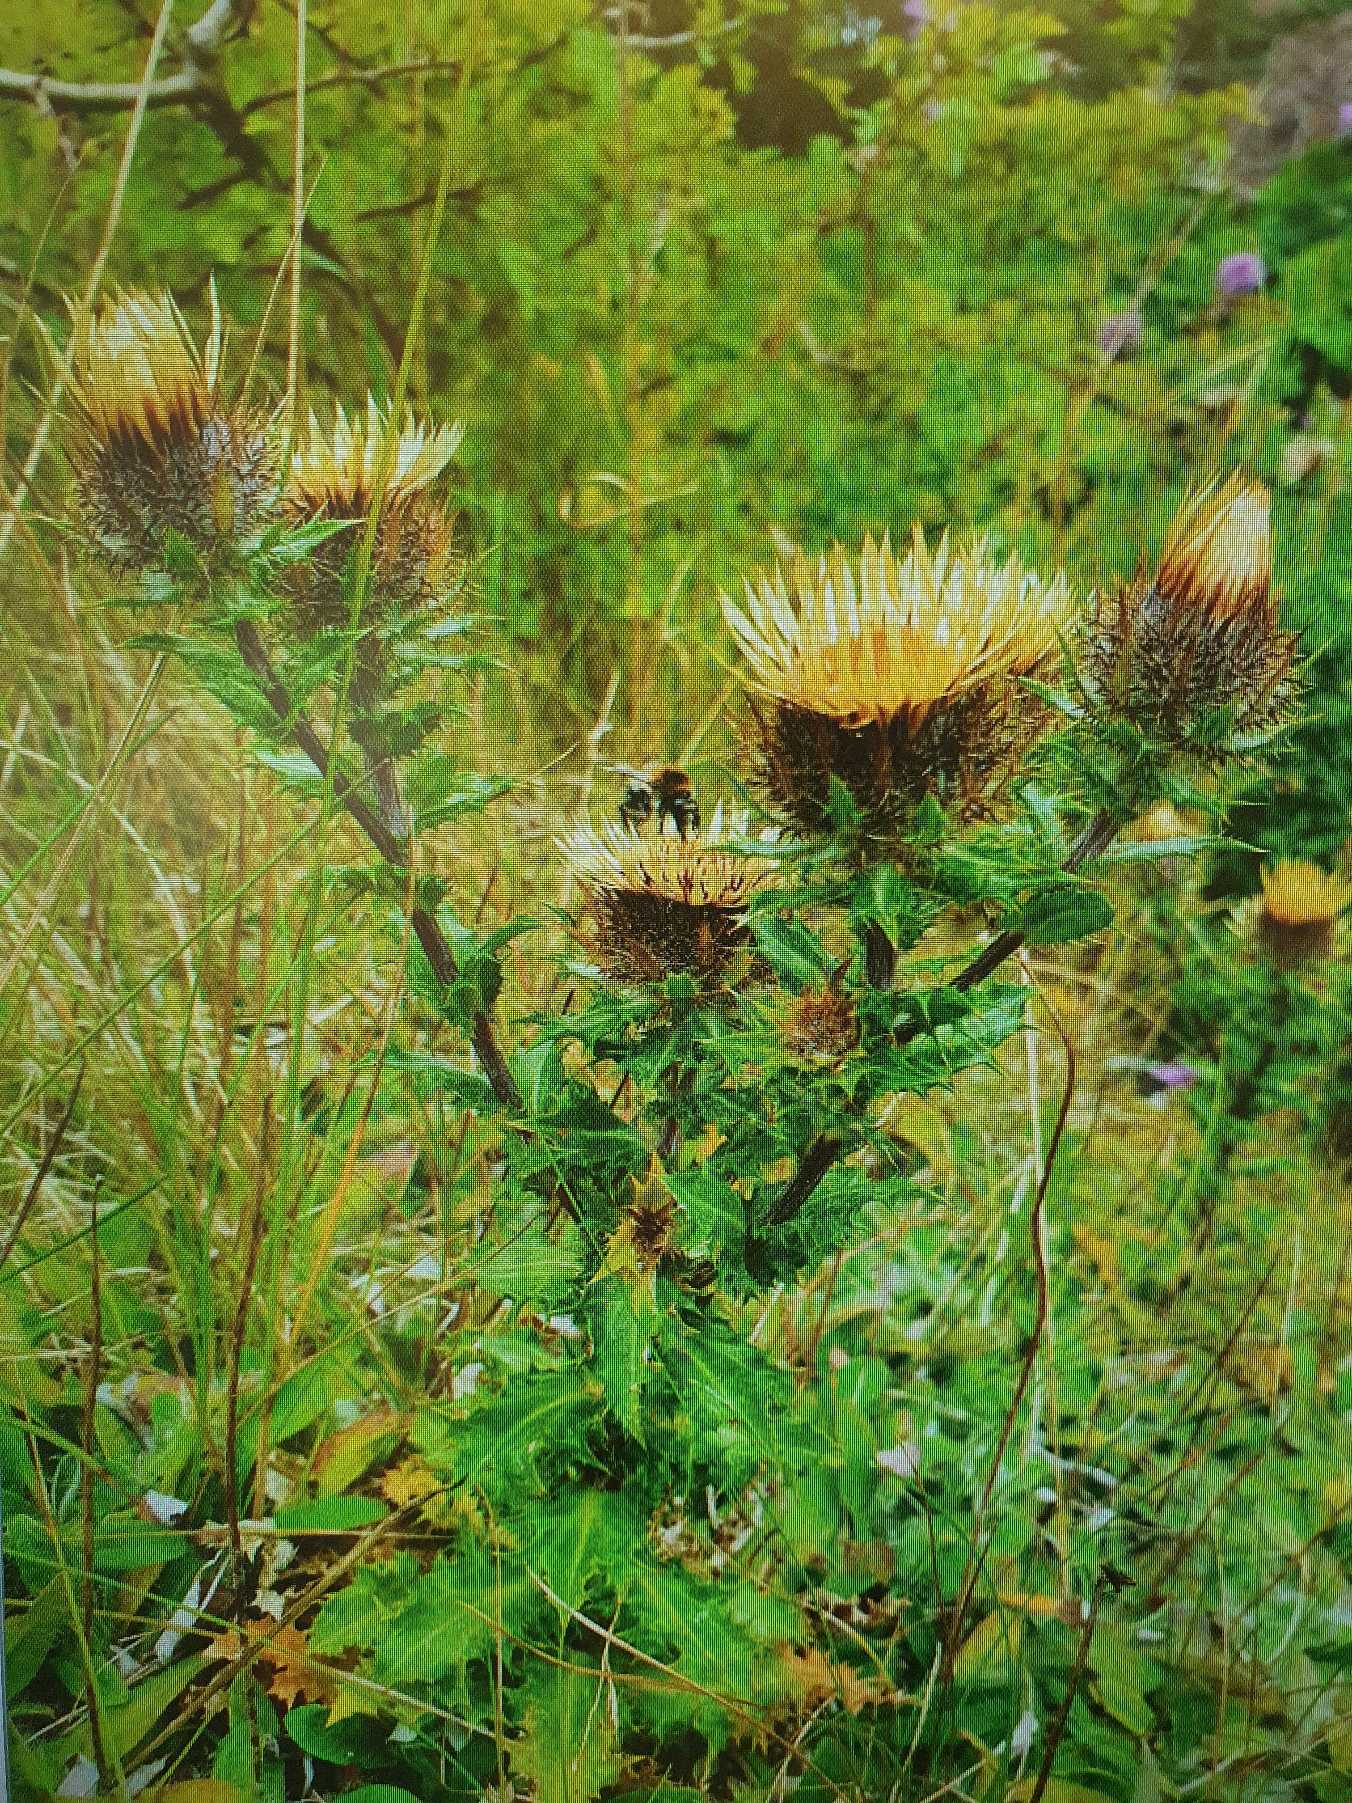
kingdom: Plantae
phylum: Tracheophyta
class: Magnoliopsida
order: Asterales
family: Asteraceae
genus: Carlina
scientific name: Carlina vulgaris
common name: Bakketidsel
